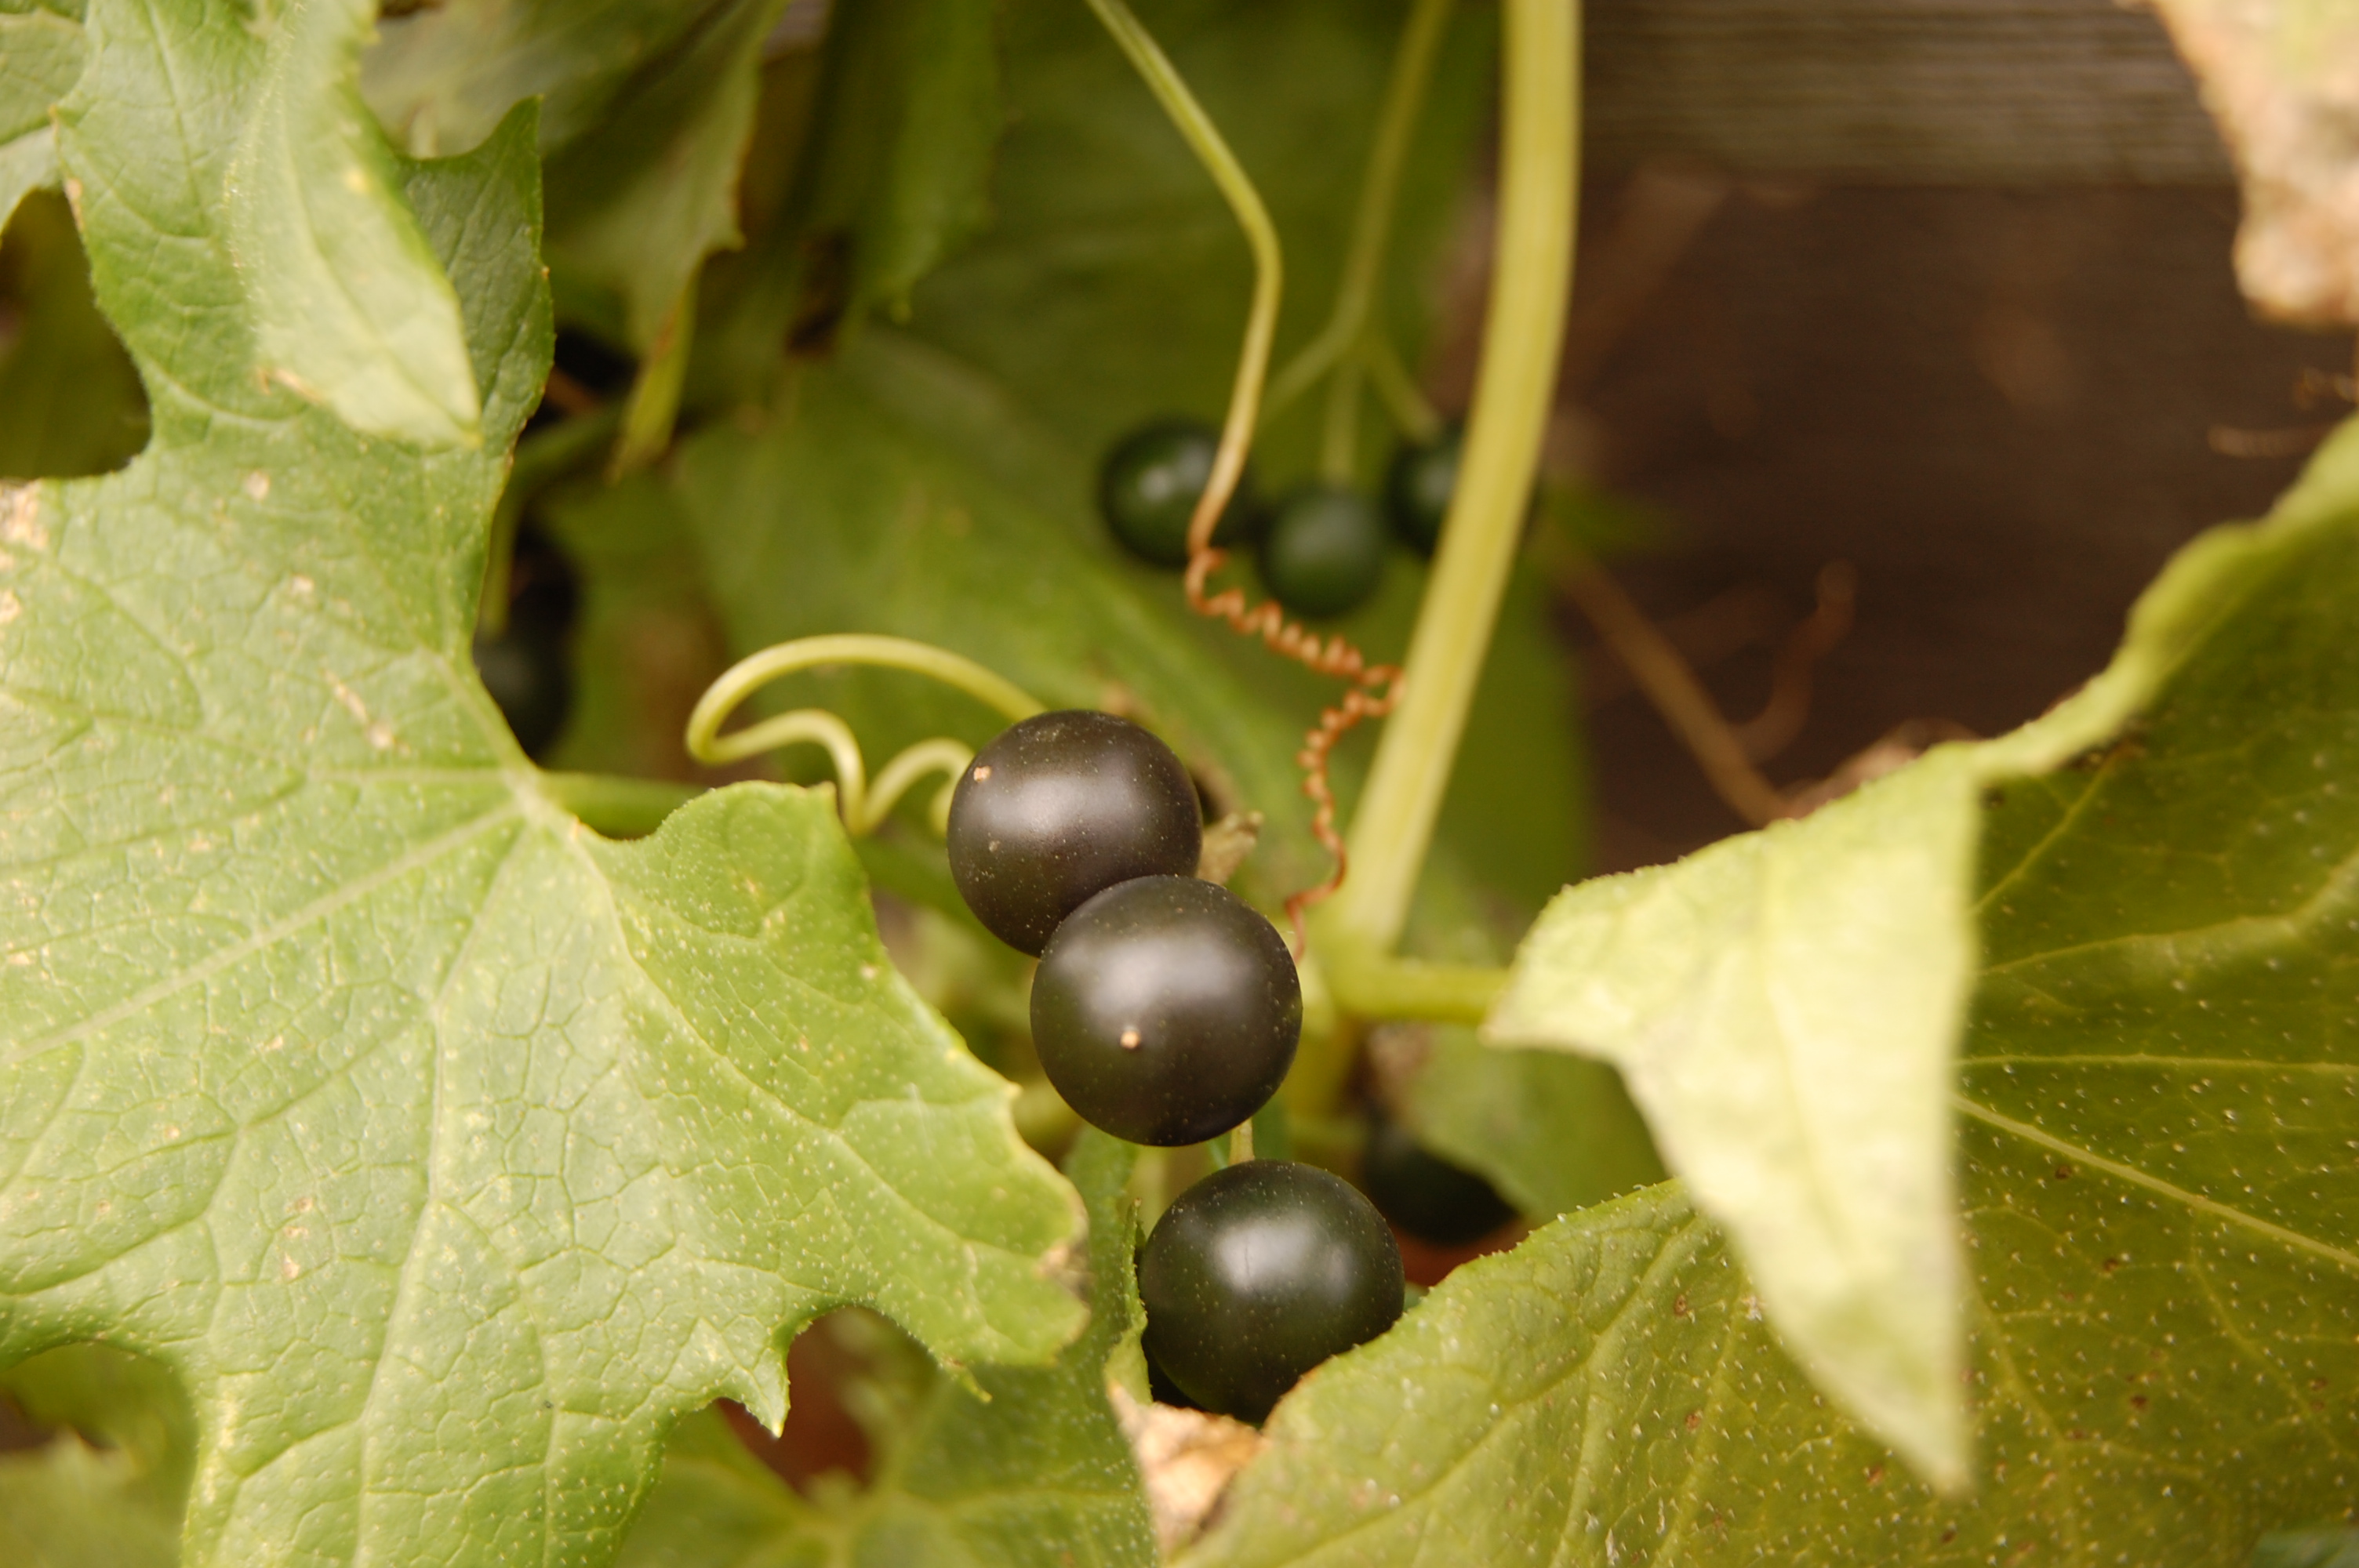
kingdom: Plantae
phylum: Tracheophyta
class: Magnoliopsida
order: Cucurbitales
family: Cucurbitaceae
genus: Bryonia
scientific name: Bryonia alba
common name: White bryony
